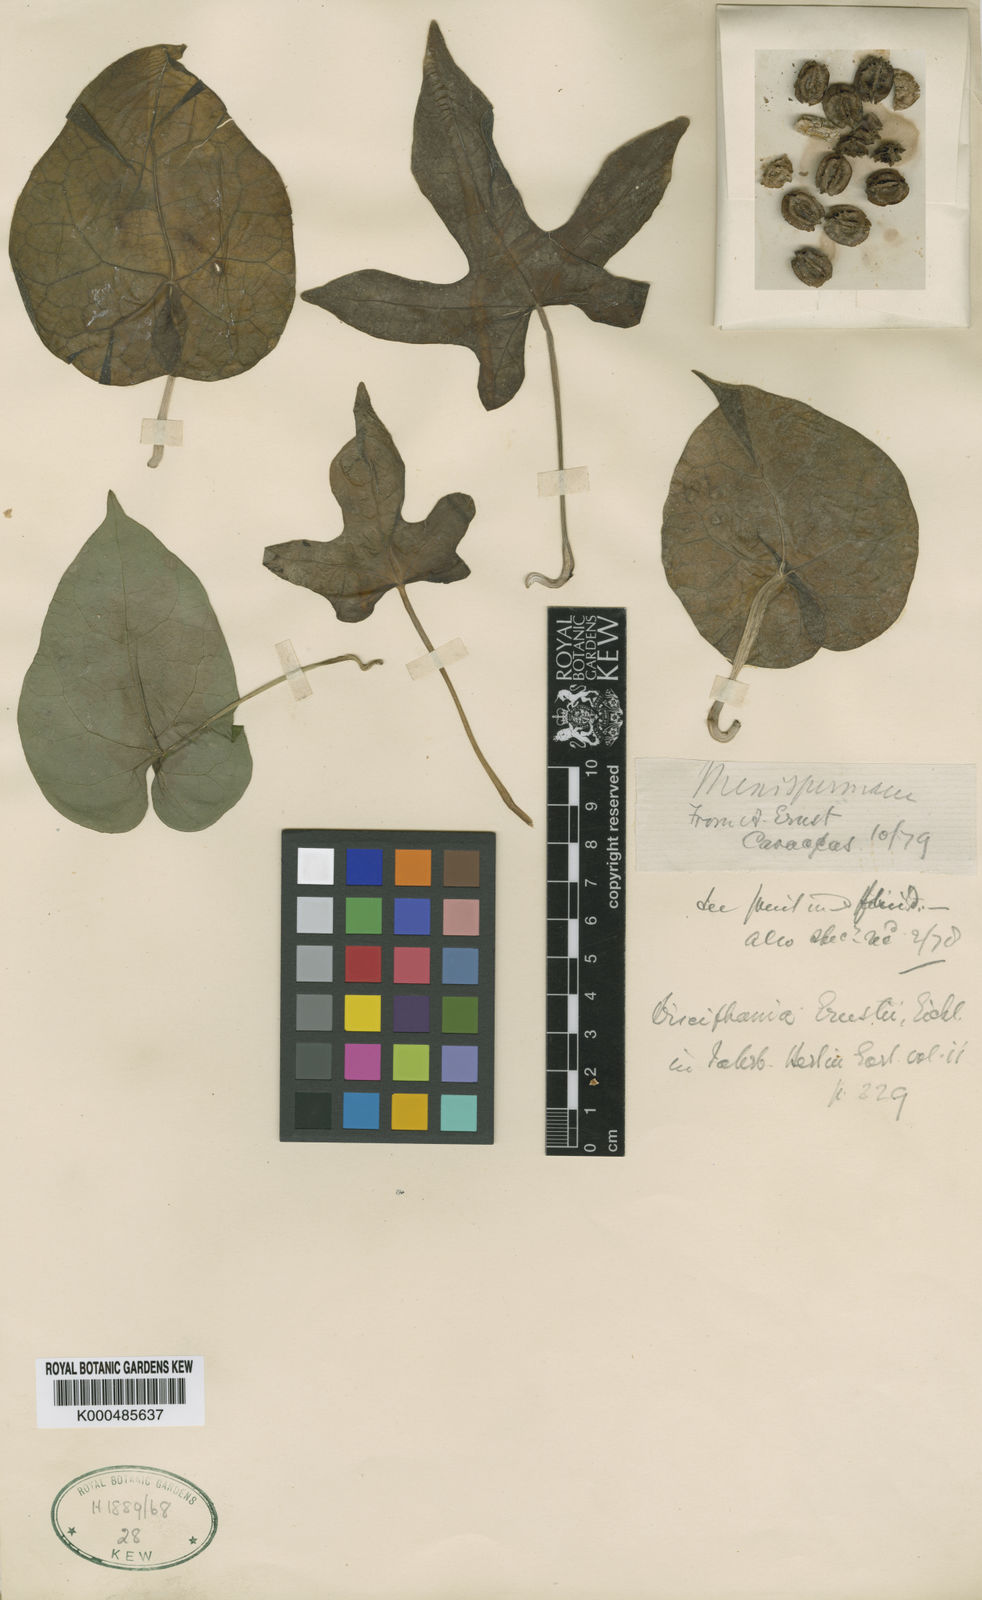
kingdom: Plantae
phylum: Tracheophyta
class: Magnoliopsida
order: Ranunculales
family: Menispermaceae
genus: Disciphania
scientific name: Disciphania ernstii
